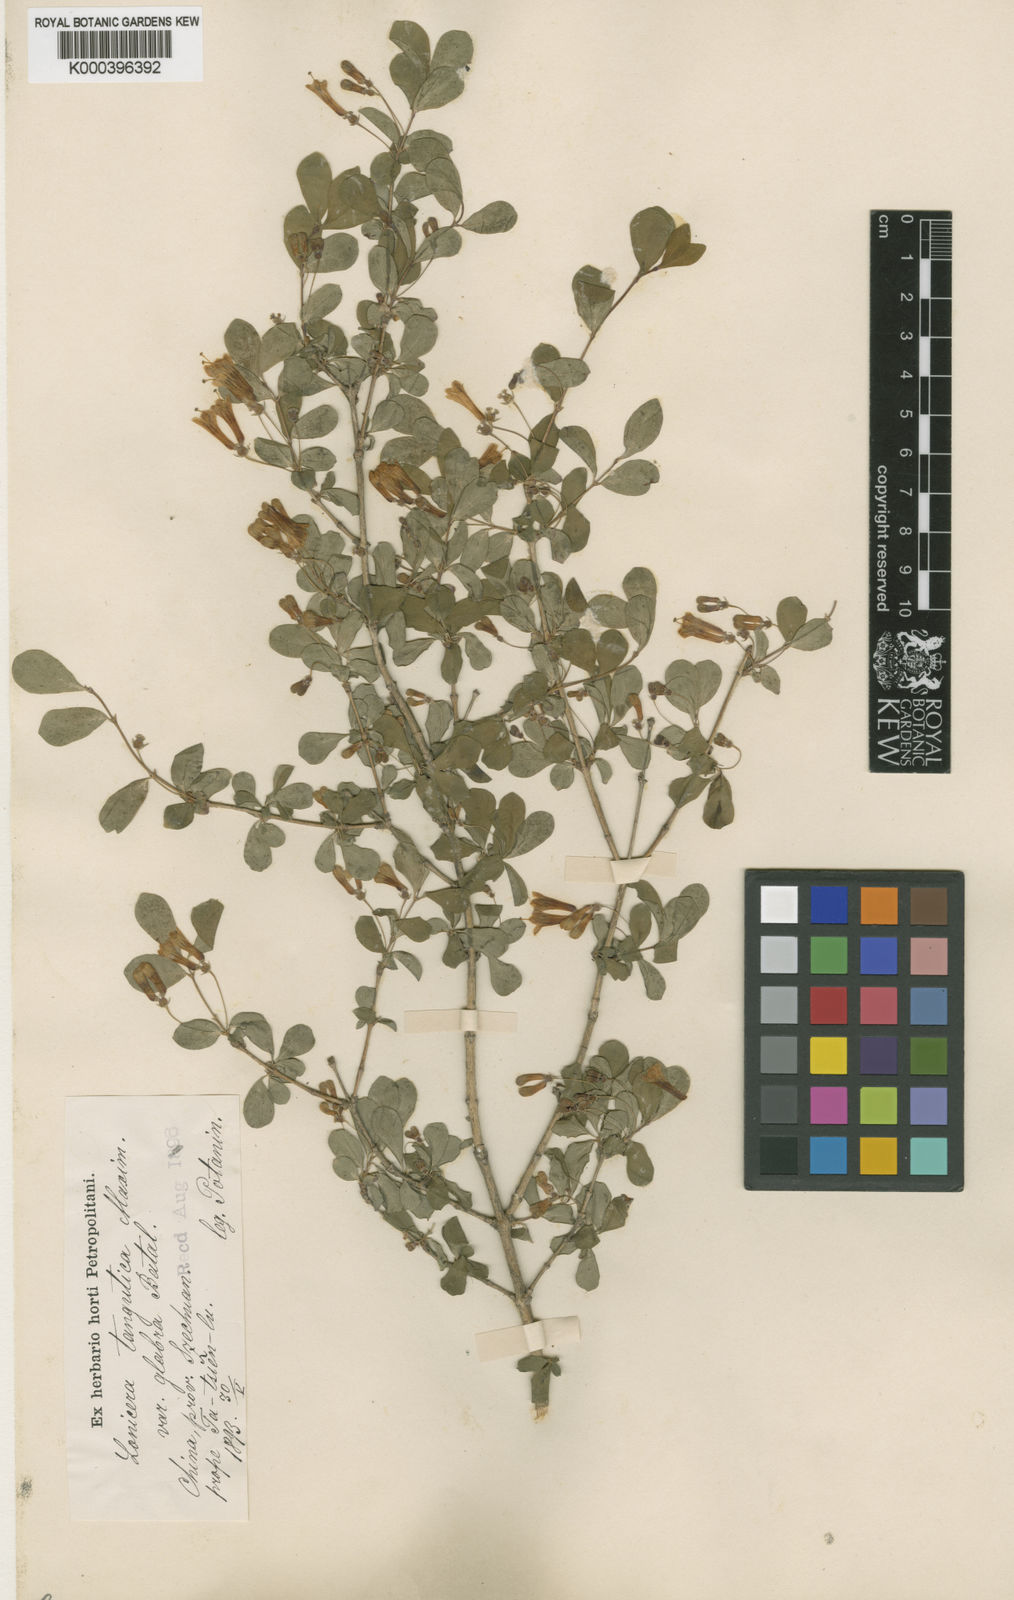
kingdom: Plantae
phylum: Tracheophyta
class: Magnoliopsida
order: Dipsacales
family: Caprifoliaceae
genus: Lonicera
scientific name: Lonicera tangutica
